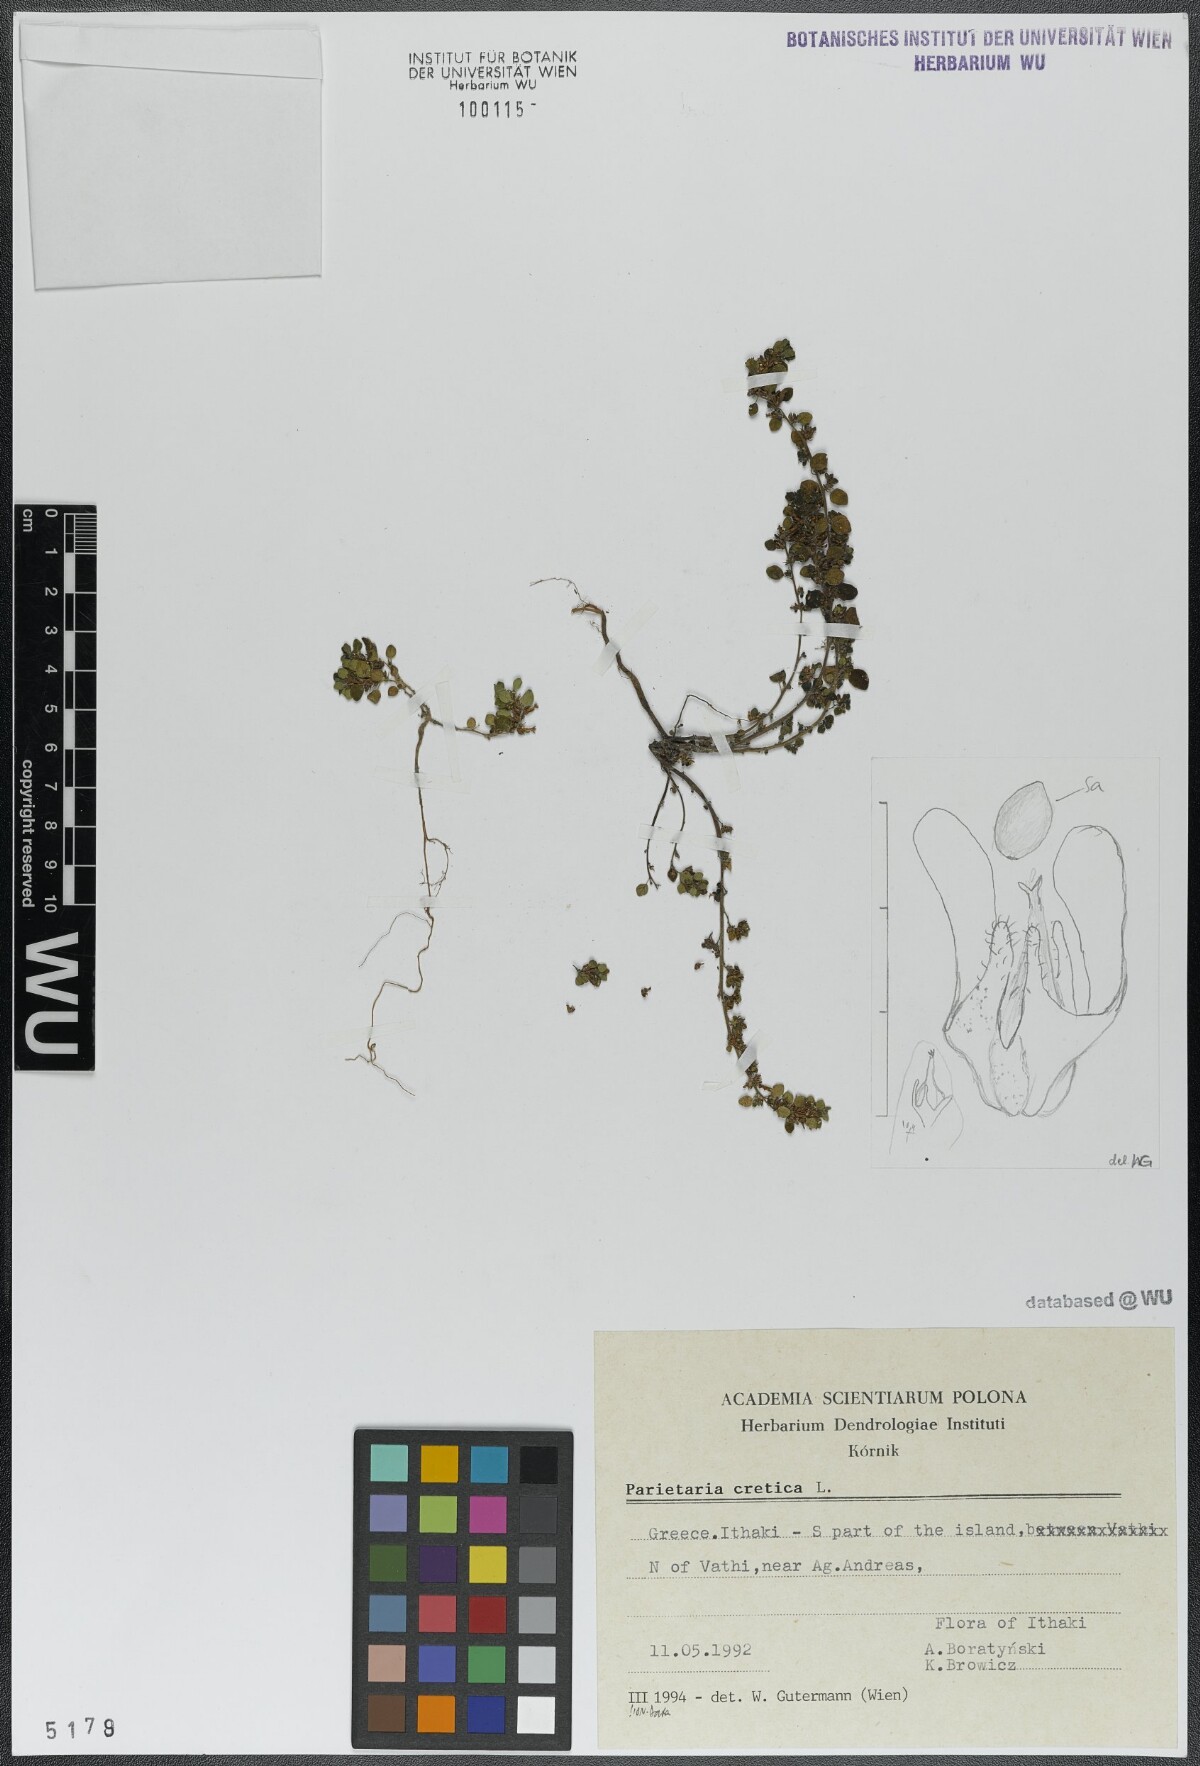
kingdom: Plantae
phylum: Tracheophyta
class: Magnoliopsida
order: Rosales
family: Urticaceae
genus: Parietaria
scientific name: Parietaria cretica
